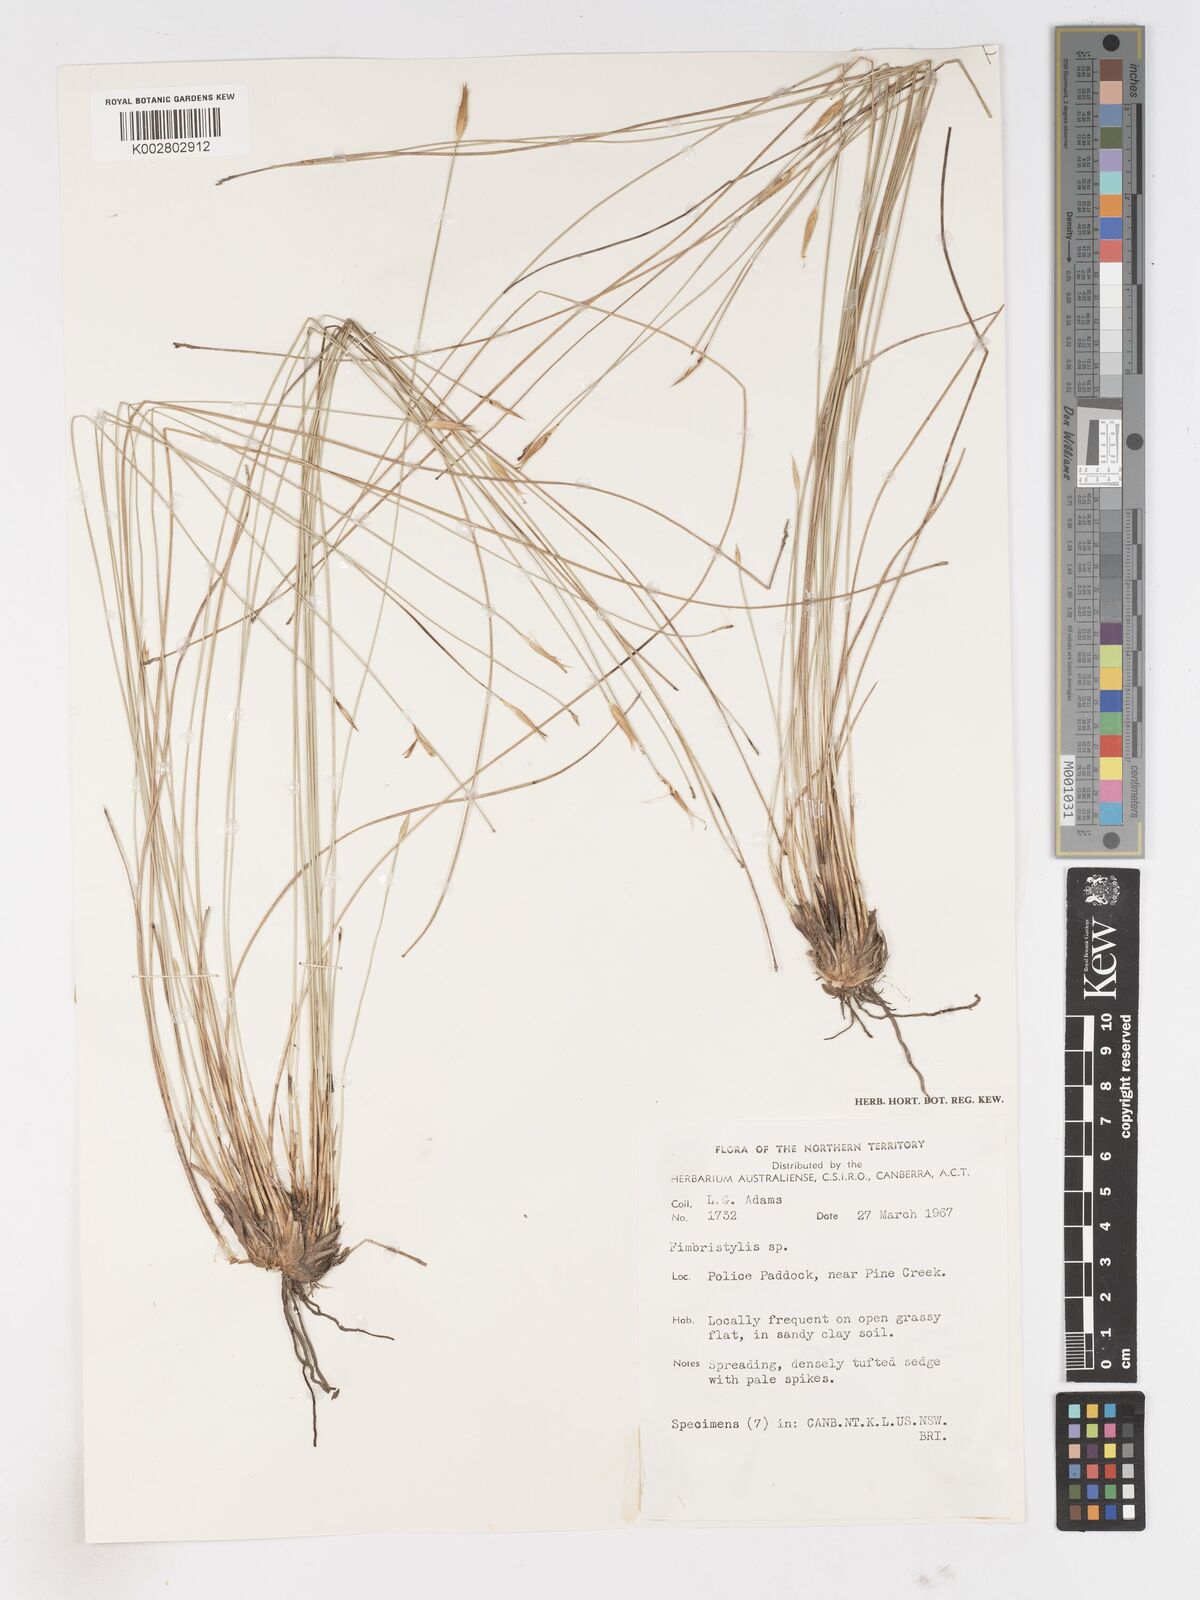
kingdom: Plantae
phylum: Tracheophyta
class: Liliopsida
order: Poales
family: Cyperaceae
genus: Fimbristylis
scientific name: Fimbristylis
